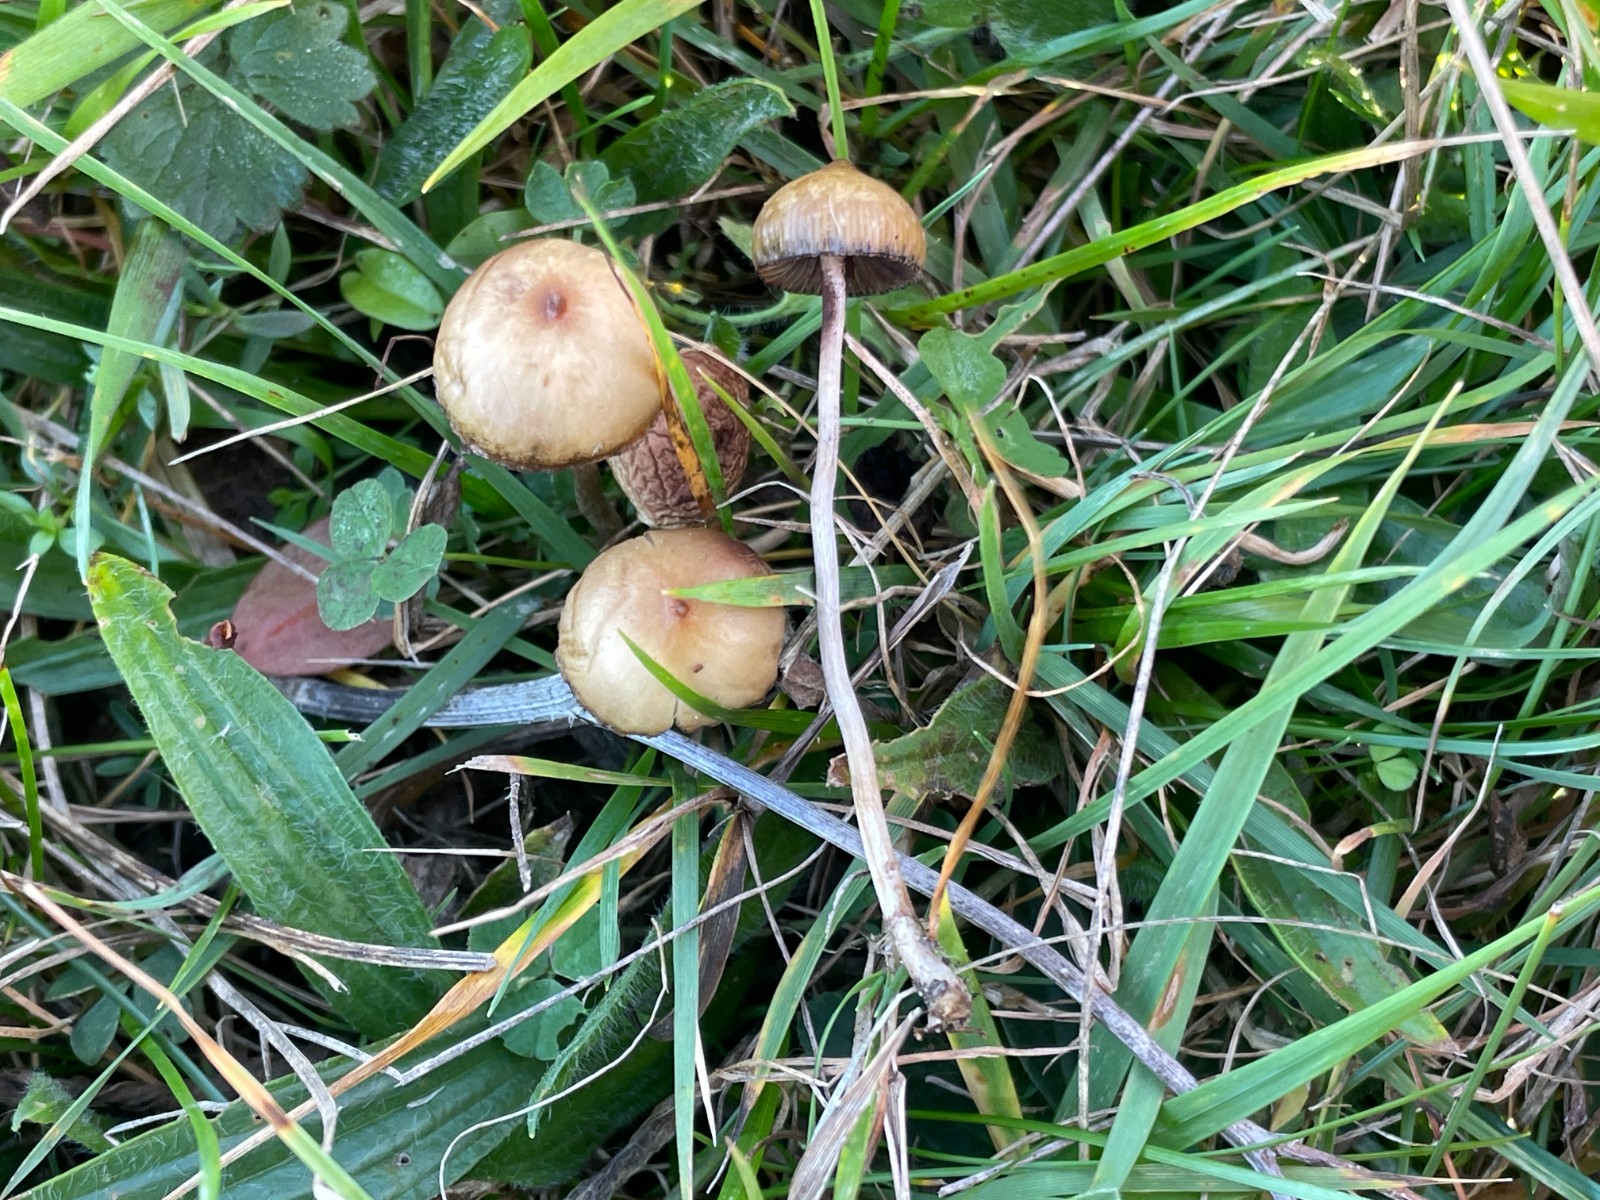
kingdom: Fungi
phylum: Basidiomycota
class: Agaricomycetes
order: Agaricales
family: Hymenogastraceae
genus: Psilocybe
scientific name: Psilocybe semilanceata
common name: spids nøgenhat
